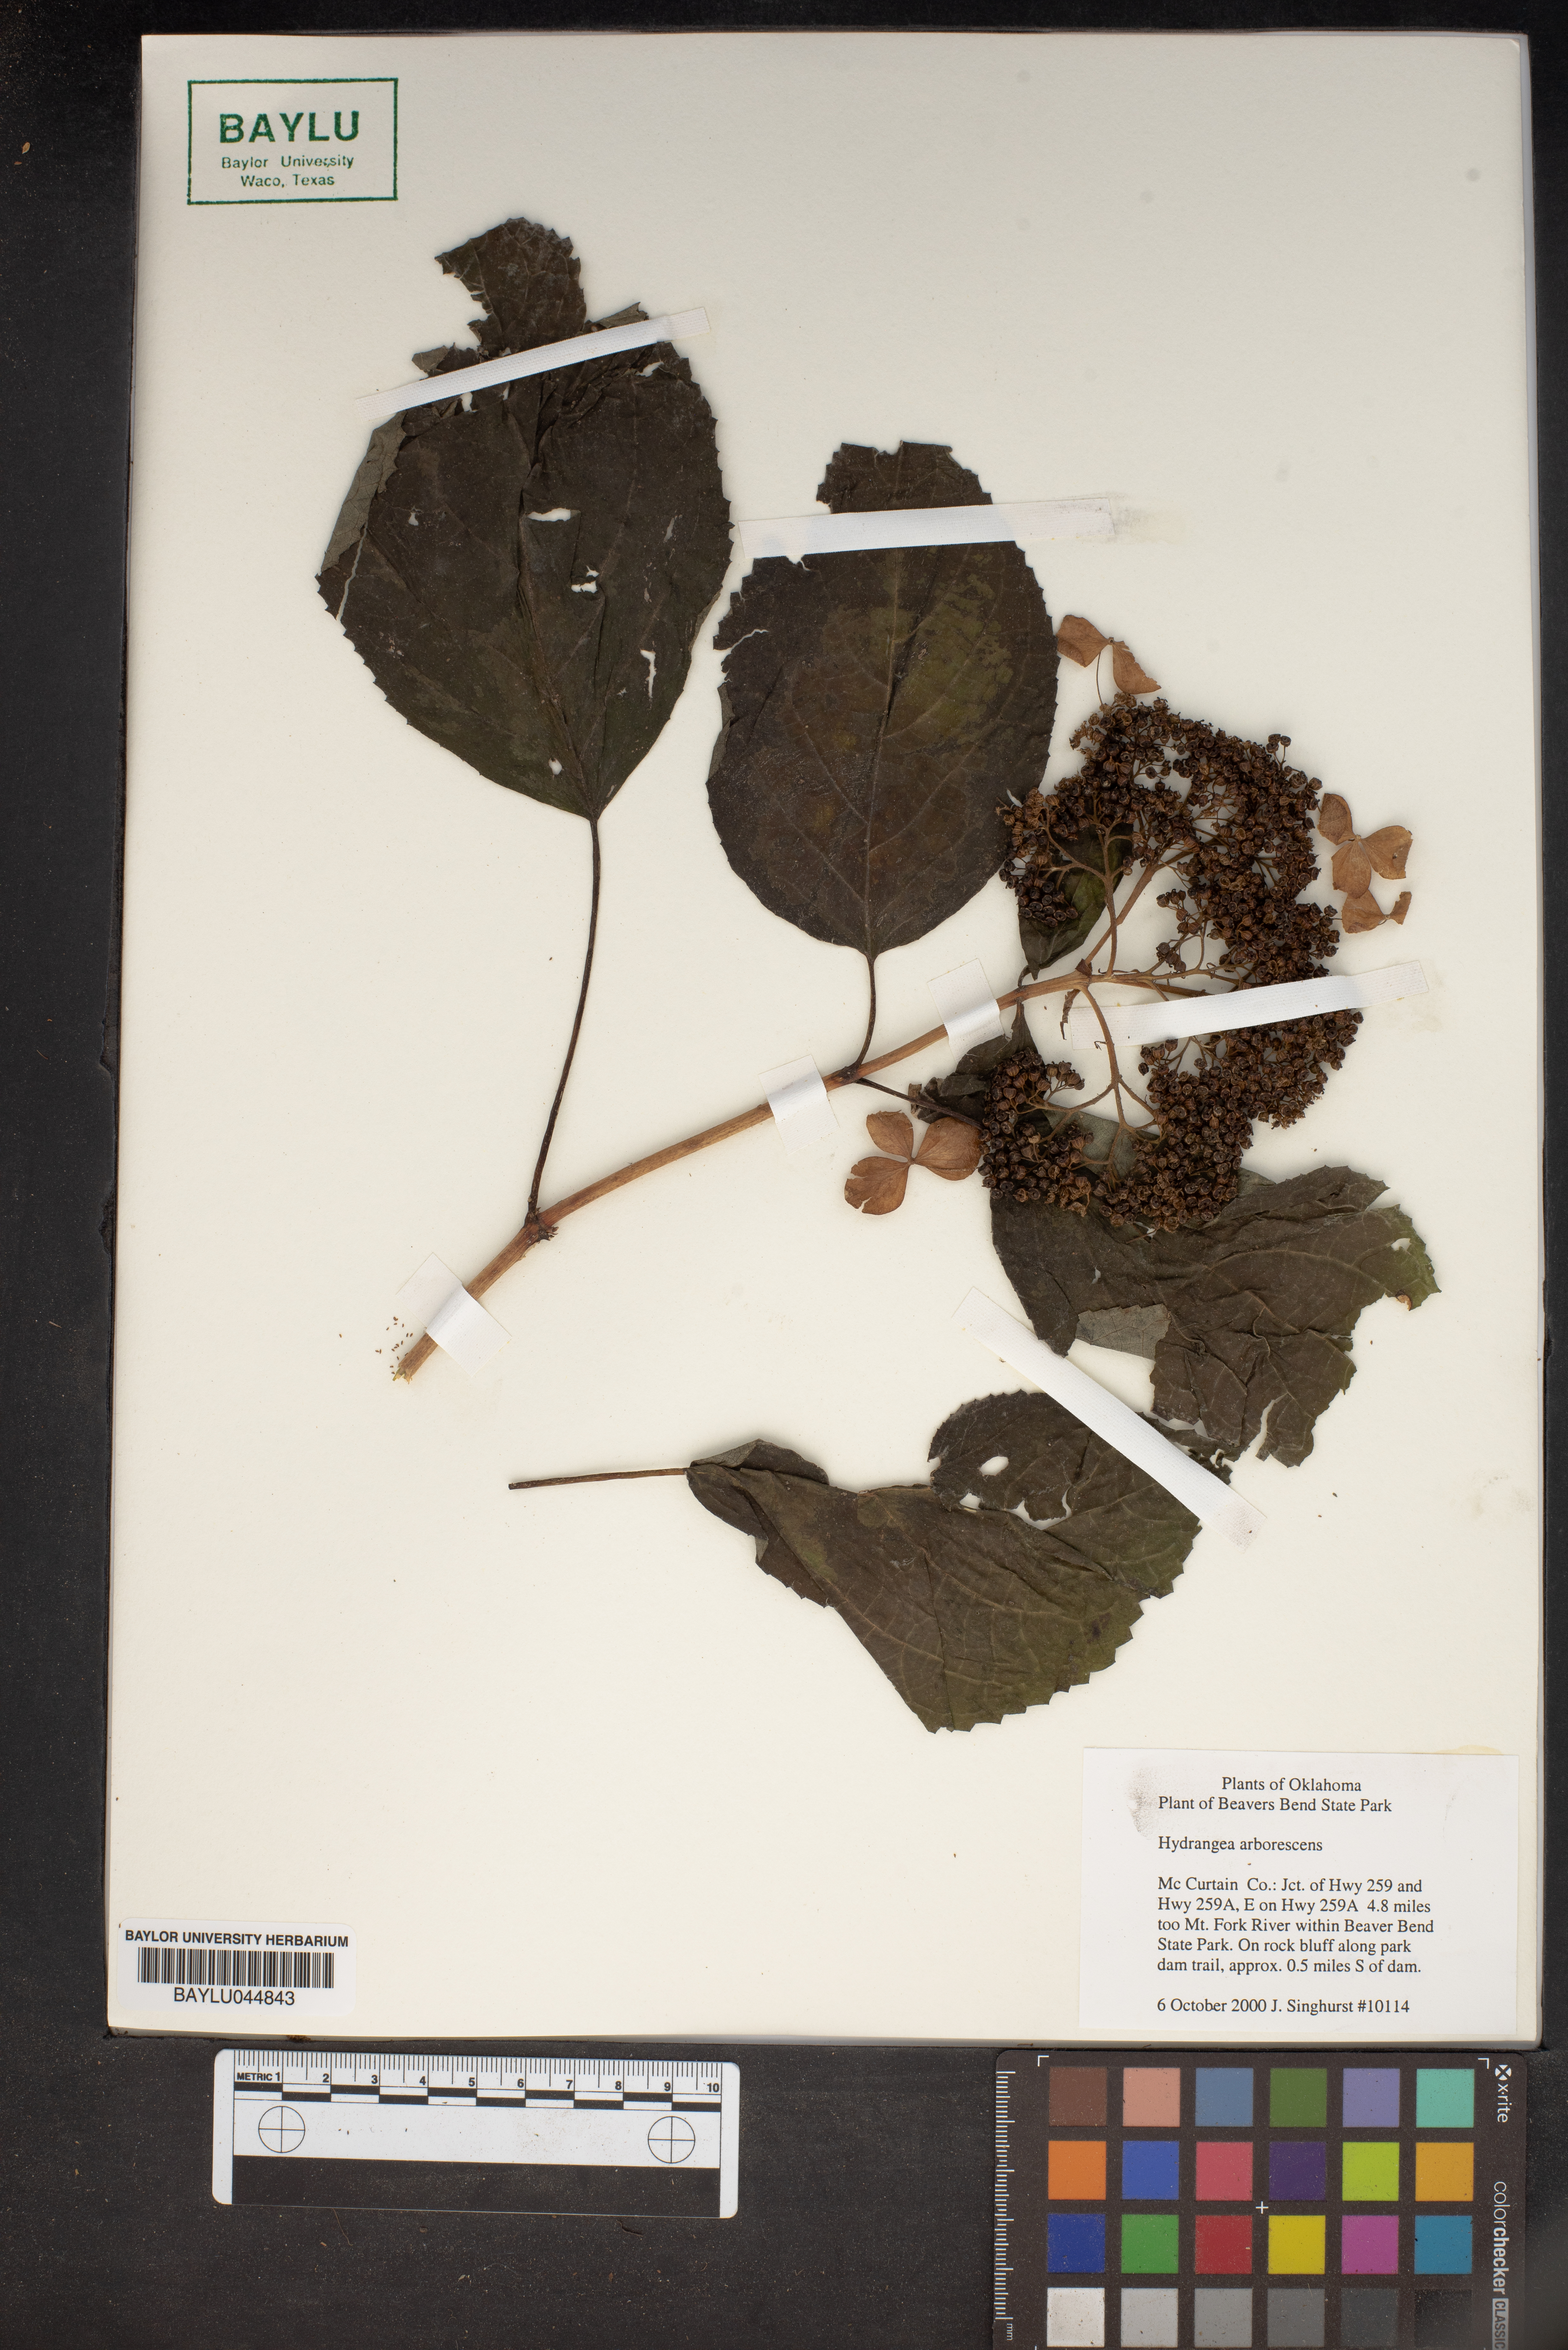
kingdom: Plantae
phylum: Tracheophyta
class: Magnoliopsida
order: Cornales
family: Hydrangeaceae
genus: Hydrangea
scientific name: Hydrangea arborescens
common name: Sevenbark
